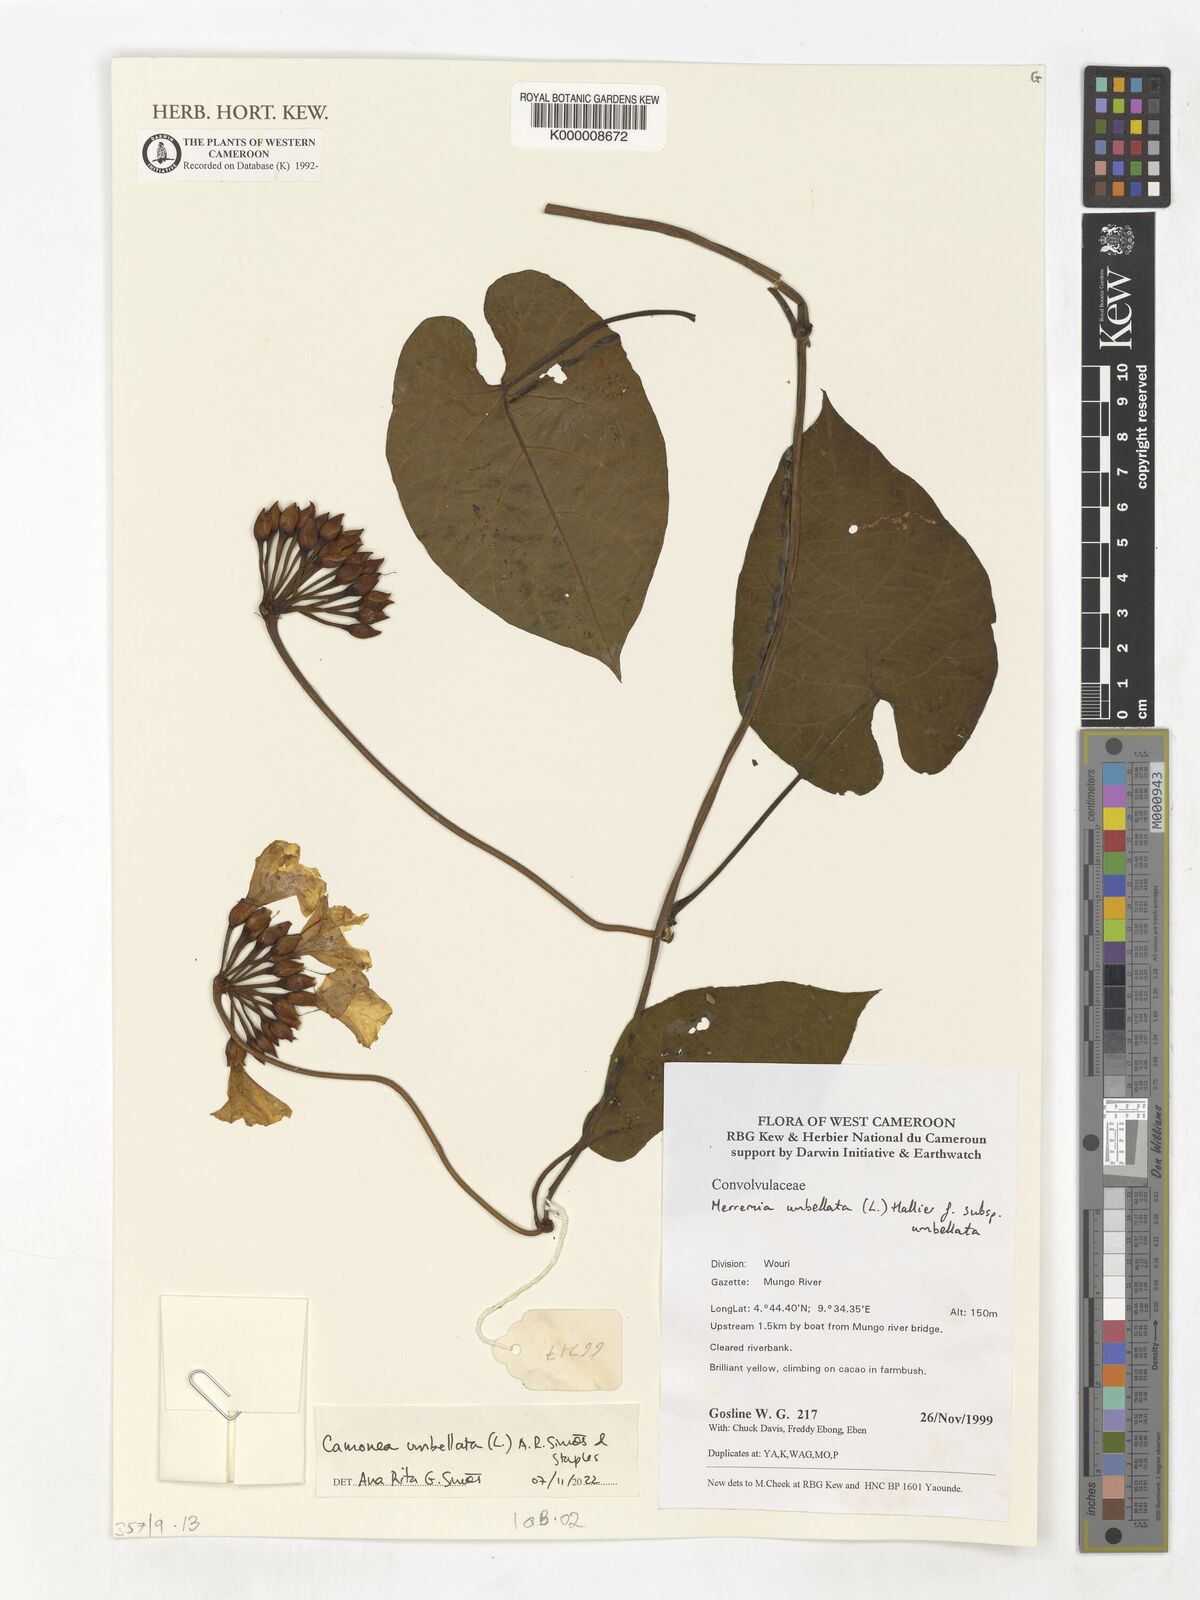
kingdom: Plantae
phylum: Tracheophyta
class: Magnoliopsida
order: Solanales
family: Convolvulaceae
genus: Camonea
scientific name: Camonea umbellata
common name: Hogvine
